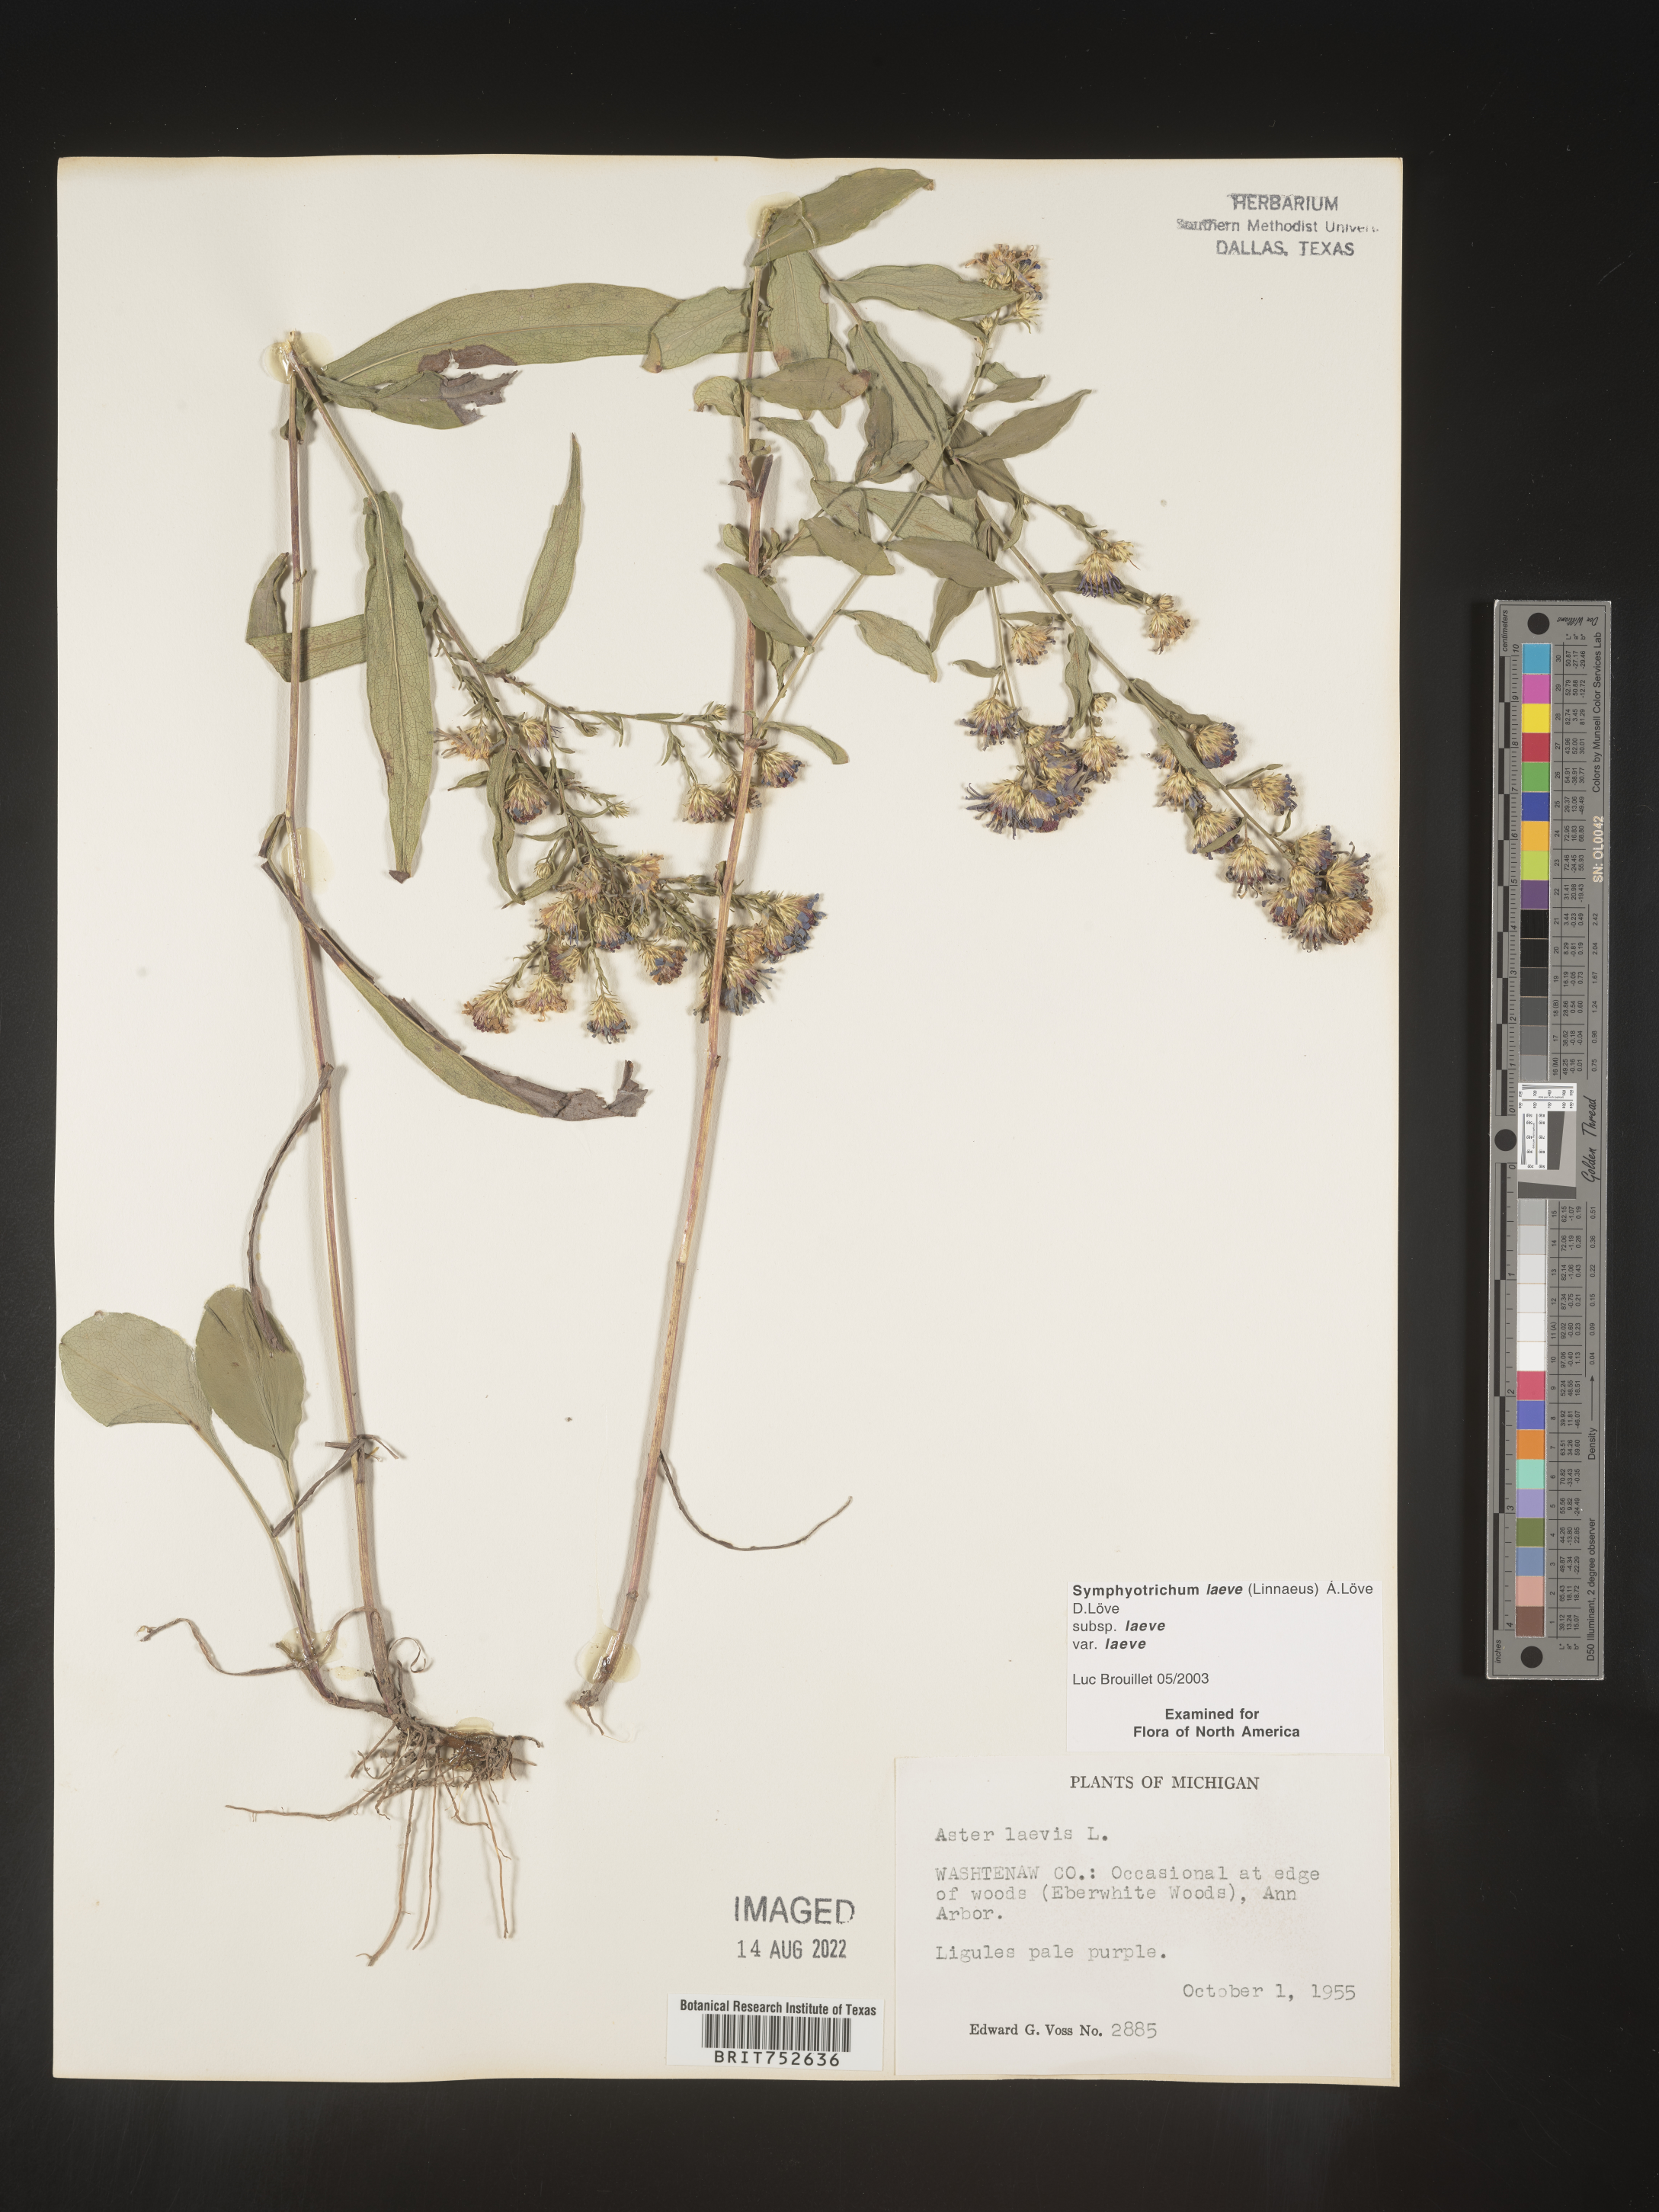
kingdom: Plantae
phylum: Tracheophyta
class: Magnoliopsida
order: Asterales
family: Asteraceae
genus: Symphyotrichum
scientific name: Symphyotrichum laeve
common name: Glaucous aster
